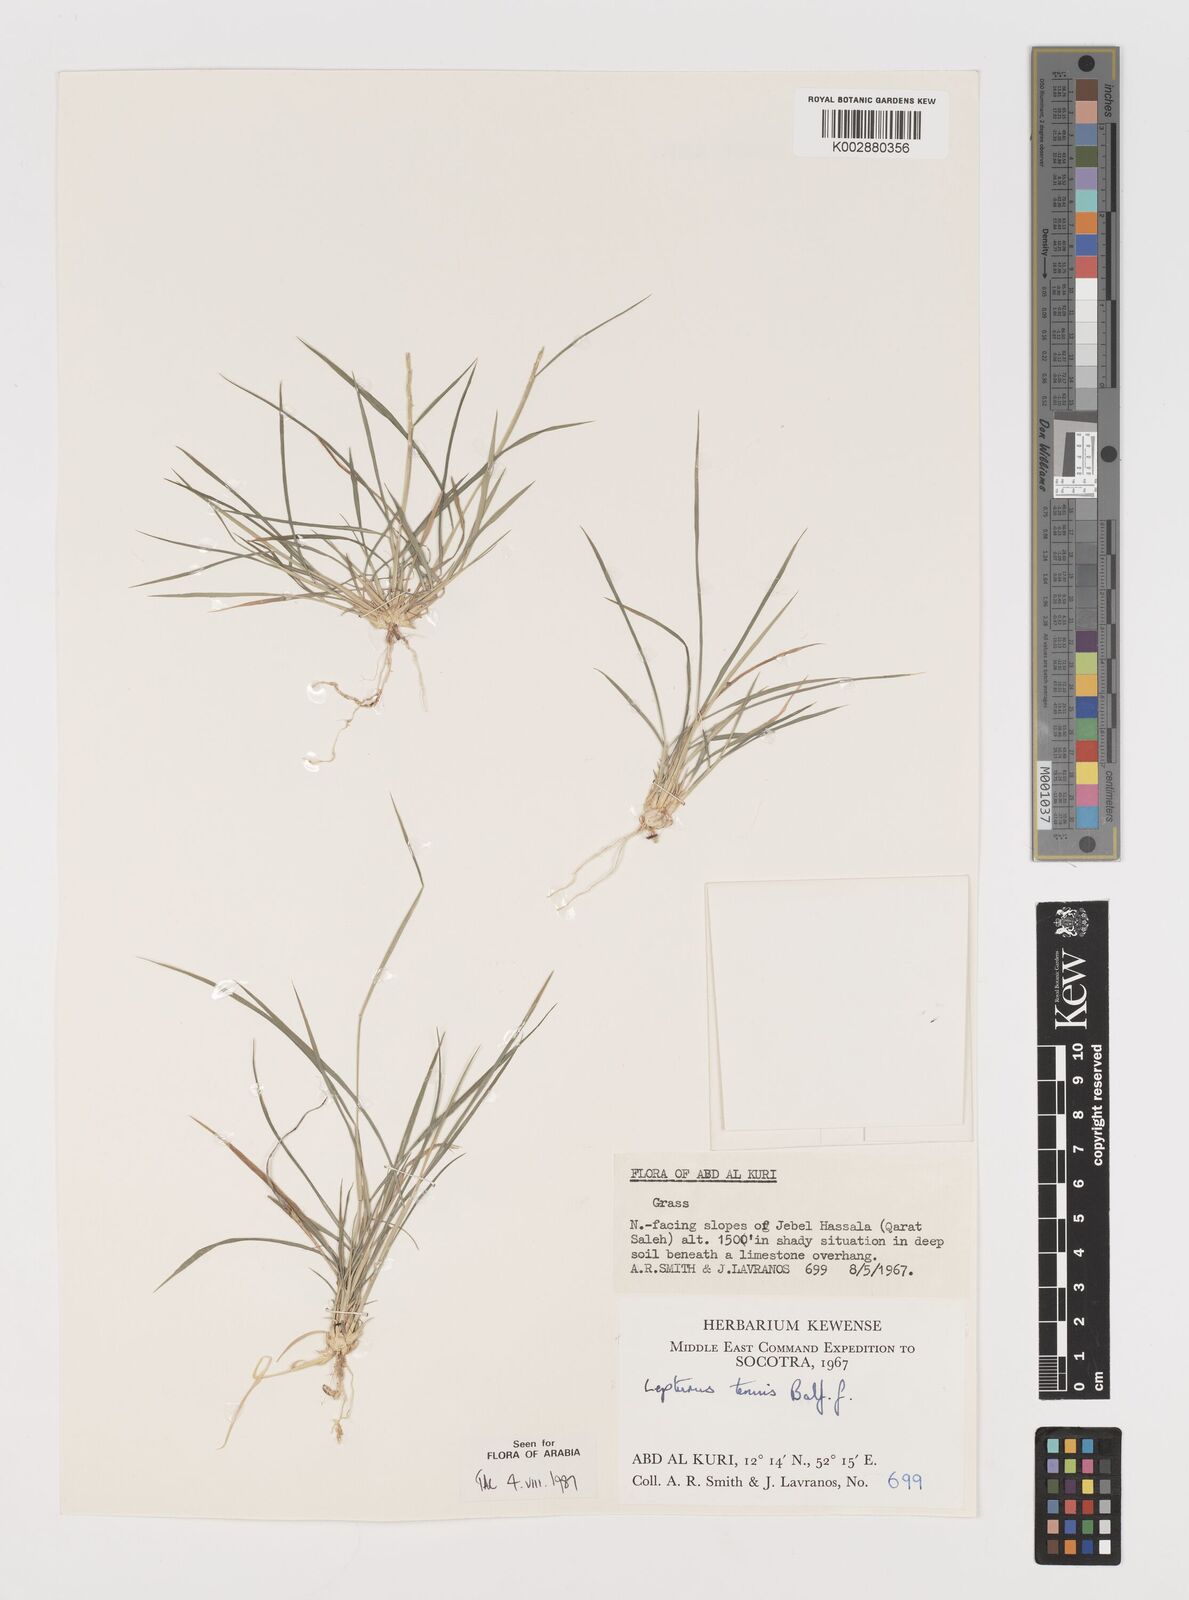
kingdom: Plantae
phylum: Tracheophyta
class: Liliopsida
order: Poales
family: Poaceae
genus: Lepturus
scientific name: Lepturus tenuis
